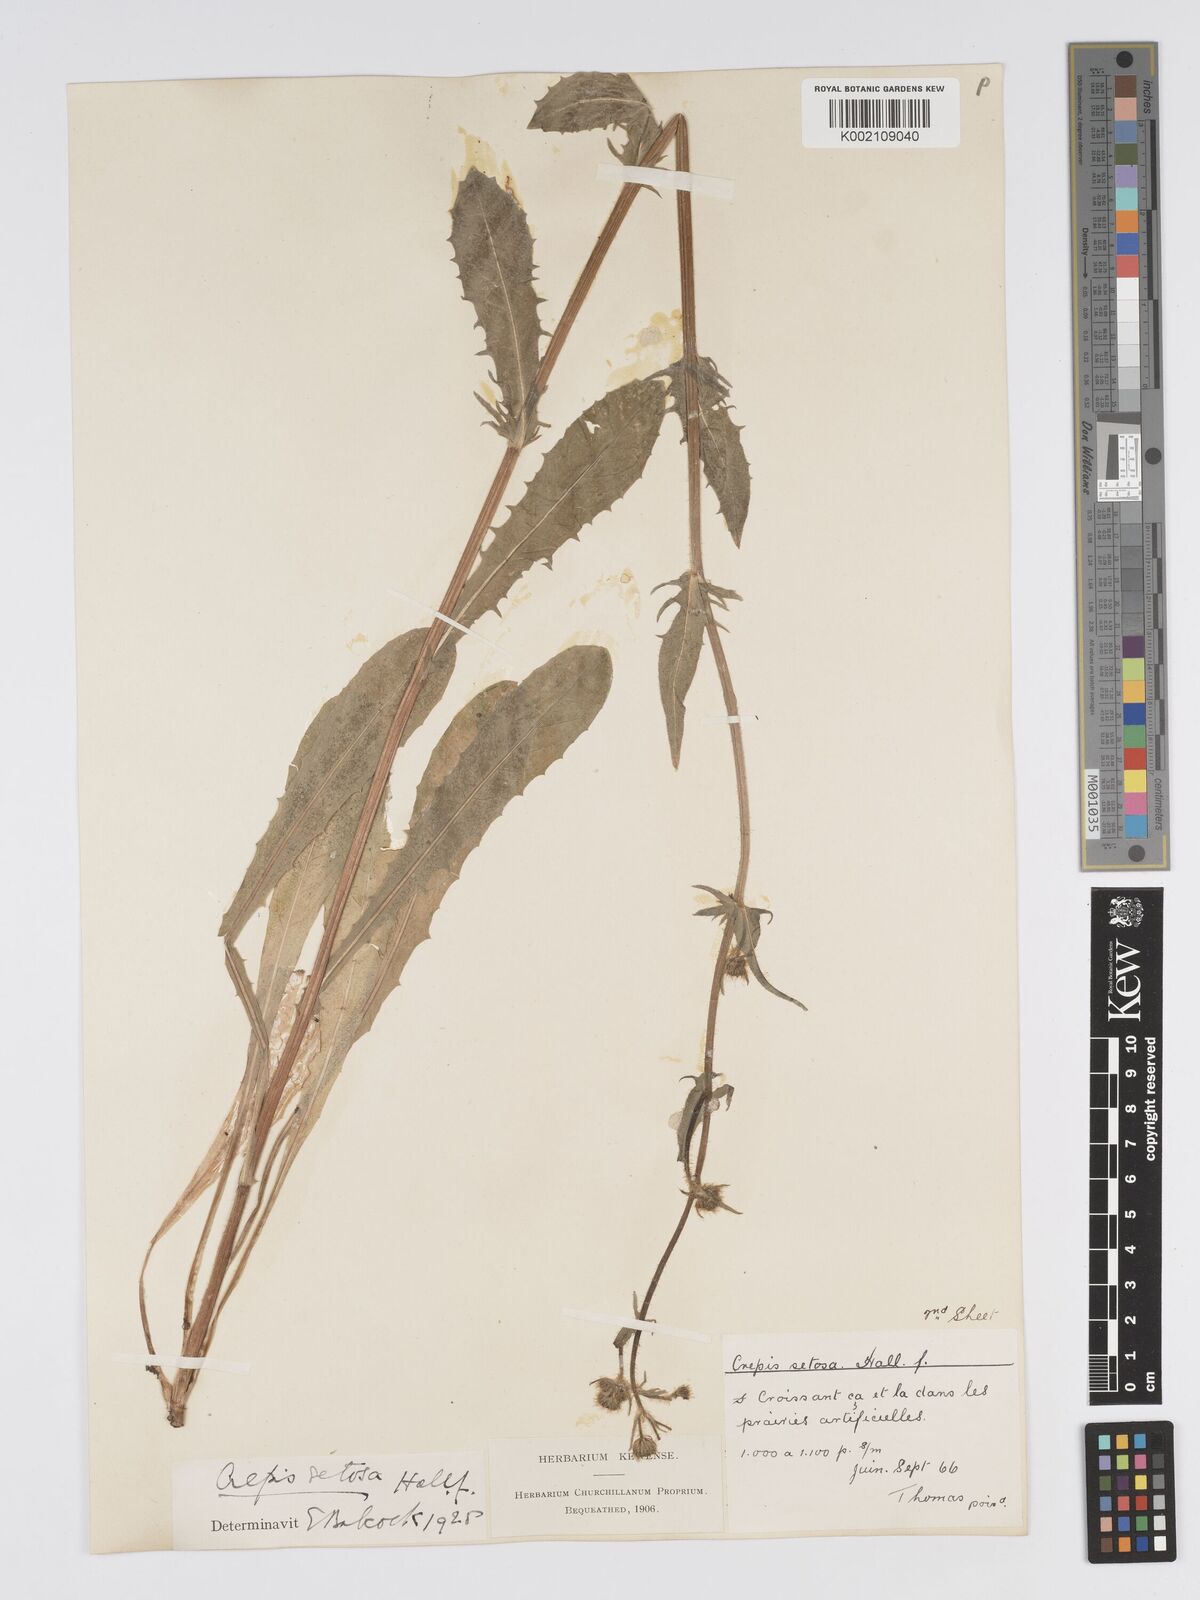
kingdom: Plantae
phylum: Tracheophyta
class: Magnoliopsida
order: Asterales
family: Asteraceae
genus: Crepis
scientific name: Crepis setosa
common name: Bristly hawk's-beard
